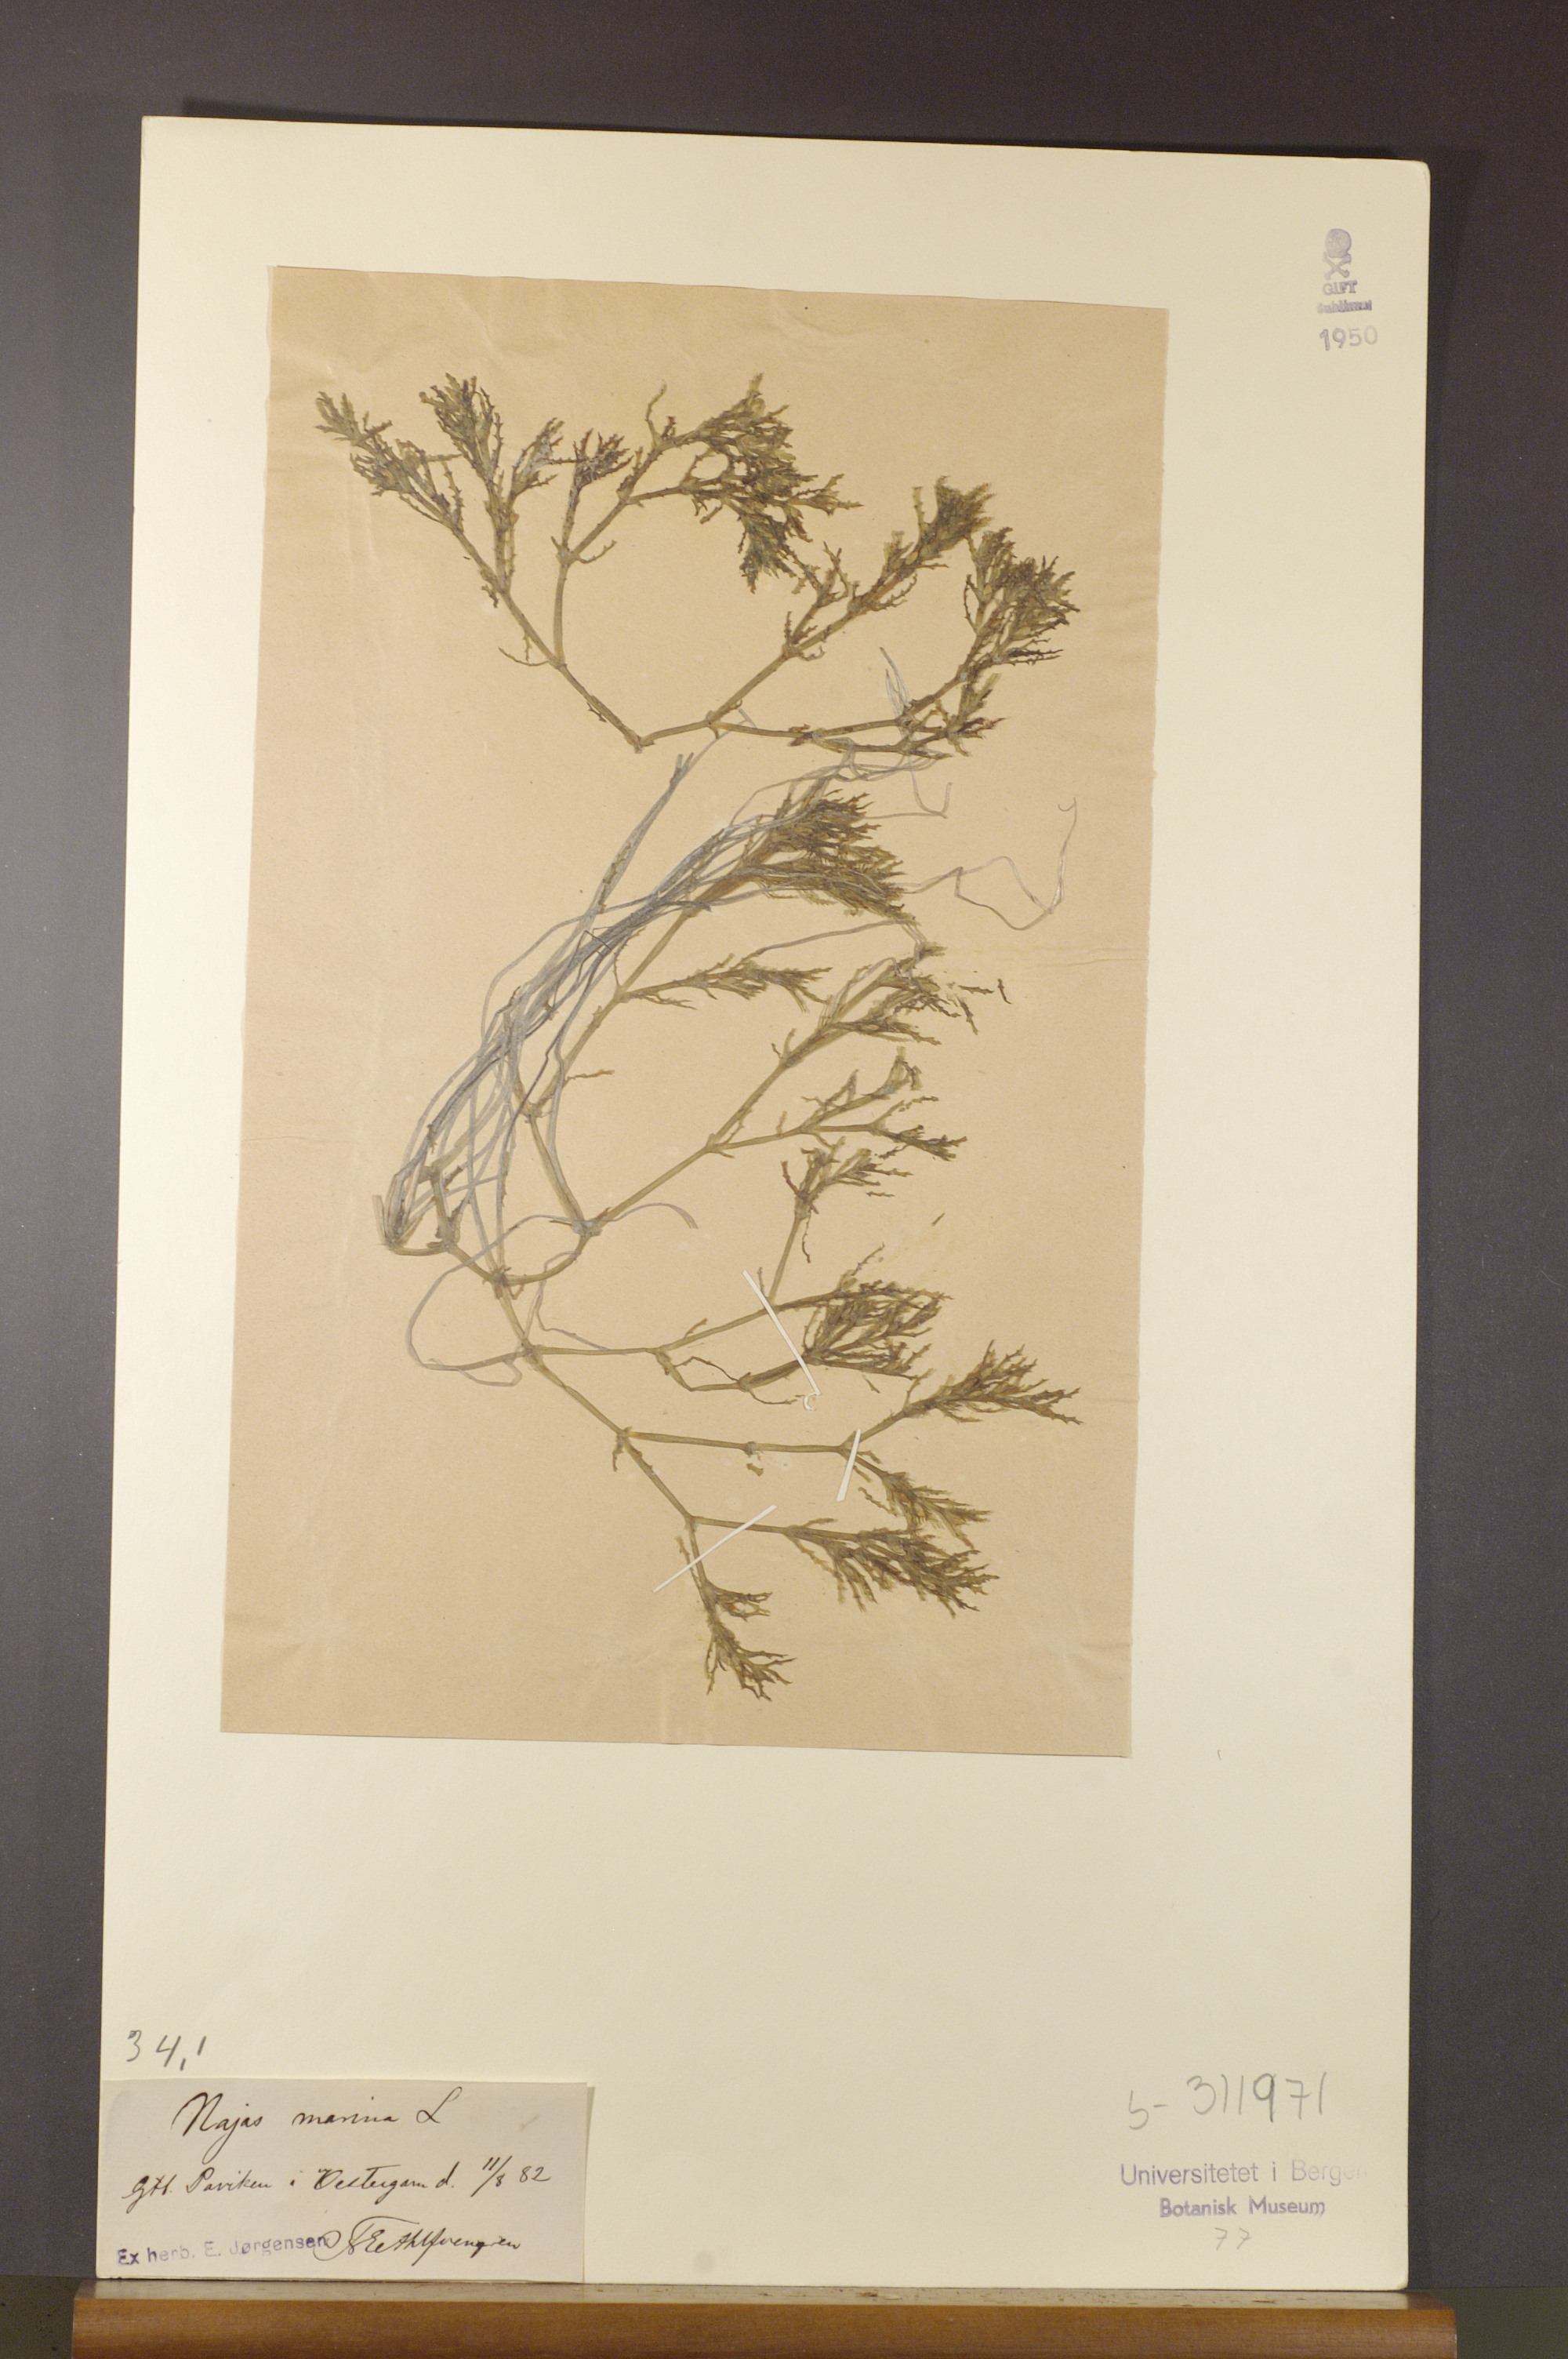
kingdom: Plantae
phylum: Tracheophyta
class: Liliopsida
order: Alismatales
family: Hydrocharitaceae
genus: Najas
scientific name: Najas marina
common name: Holly-leaved naiad
